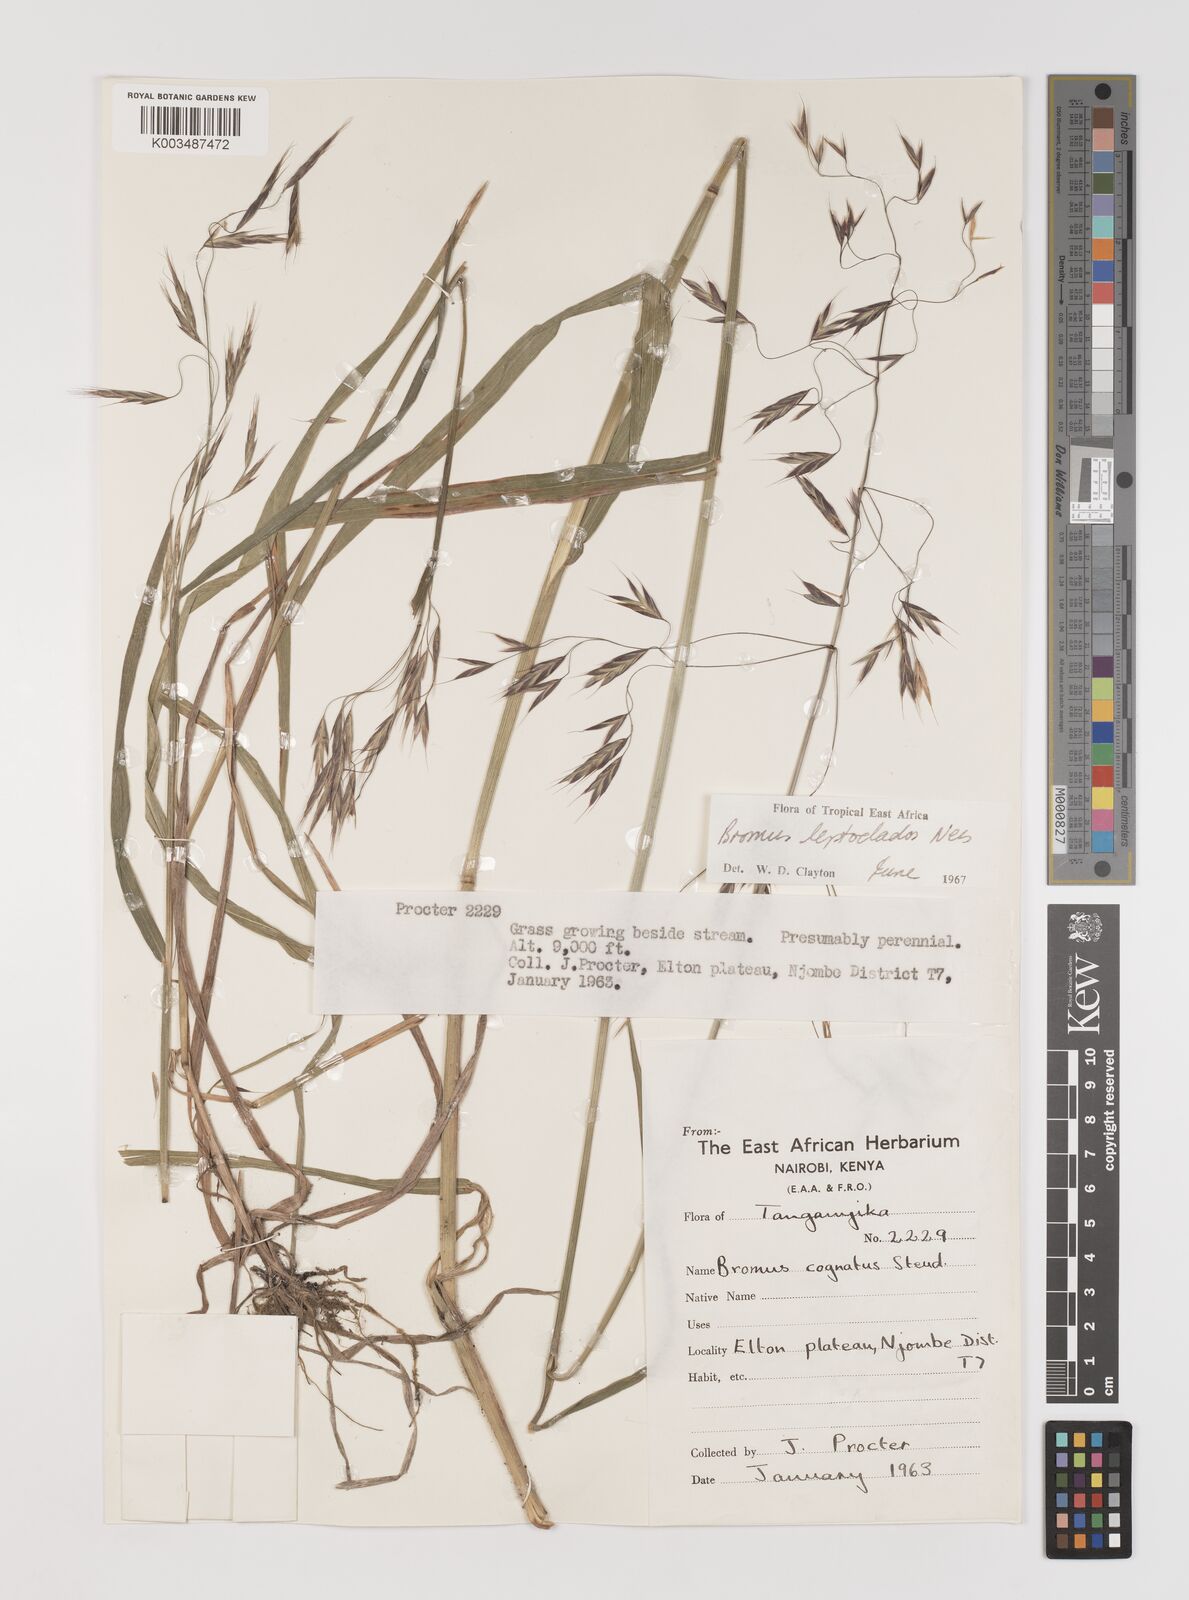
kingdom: Plantae
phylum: Tracheophyta
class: Liliopsida
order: Poales
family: Poaceae
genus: Bromus
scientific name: Bromus leptoclados
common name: Mountain bromegrass
